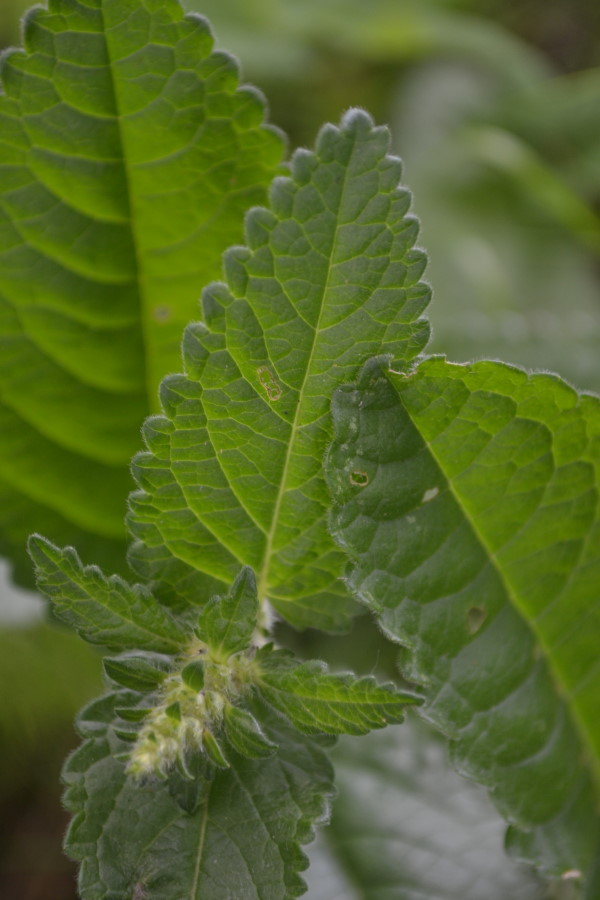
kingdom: Plantae
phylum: Tracheophyta
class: Magnoliopsida
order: Lamiales
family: Lamiaceae
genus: Betonica
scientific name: Betonica officinalis
